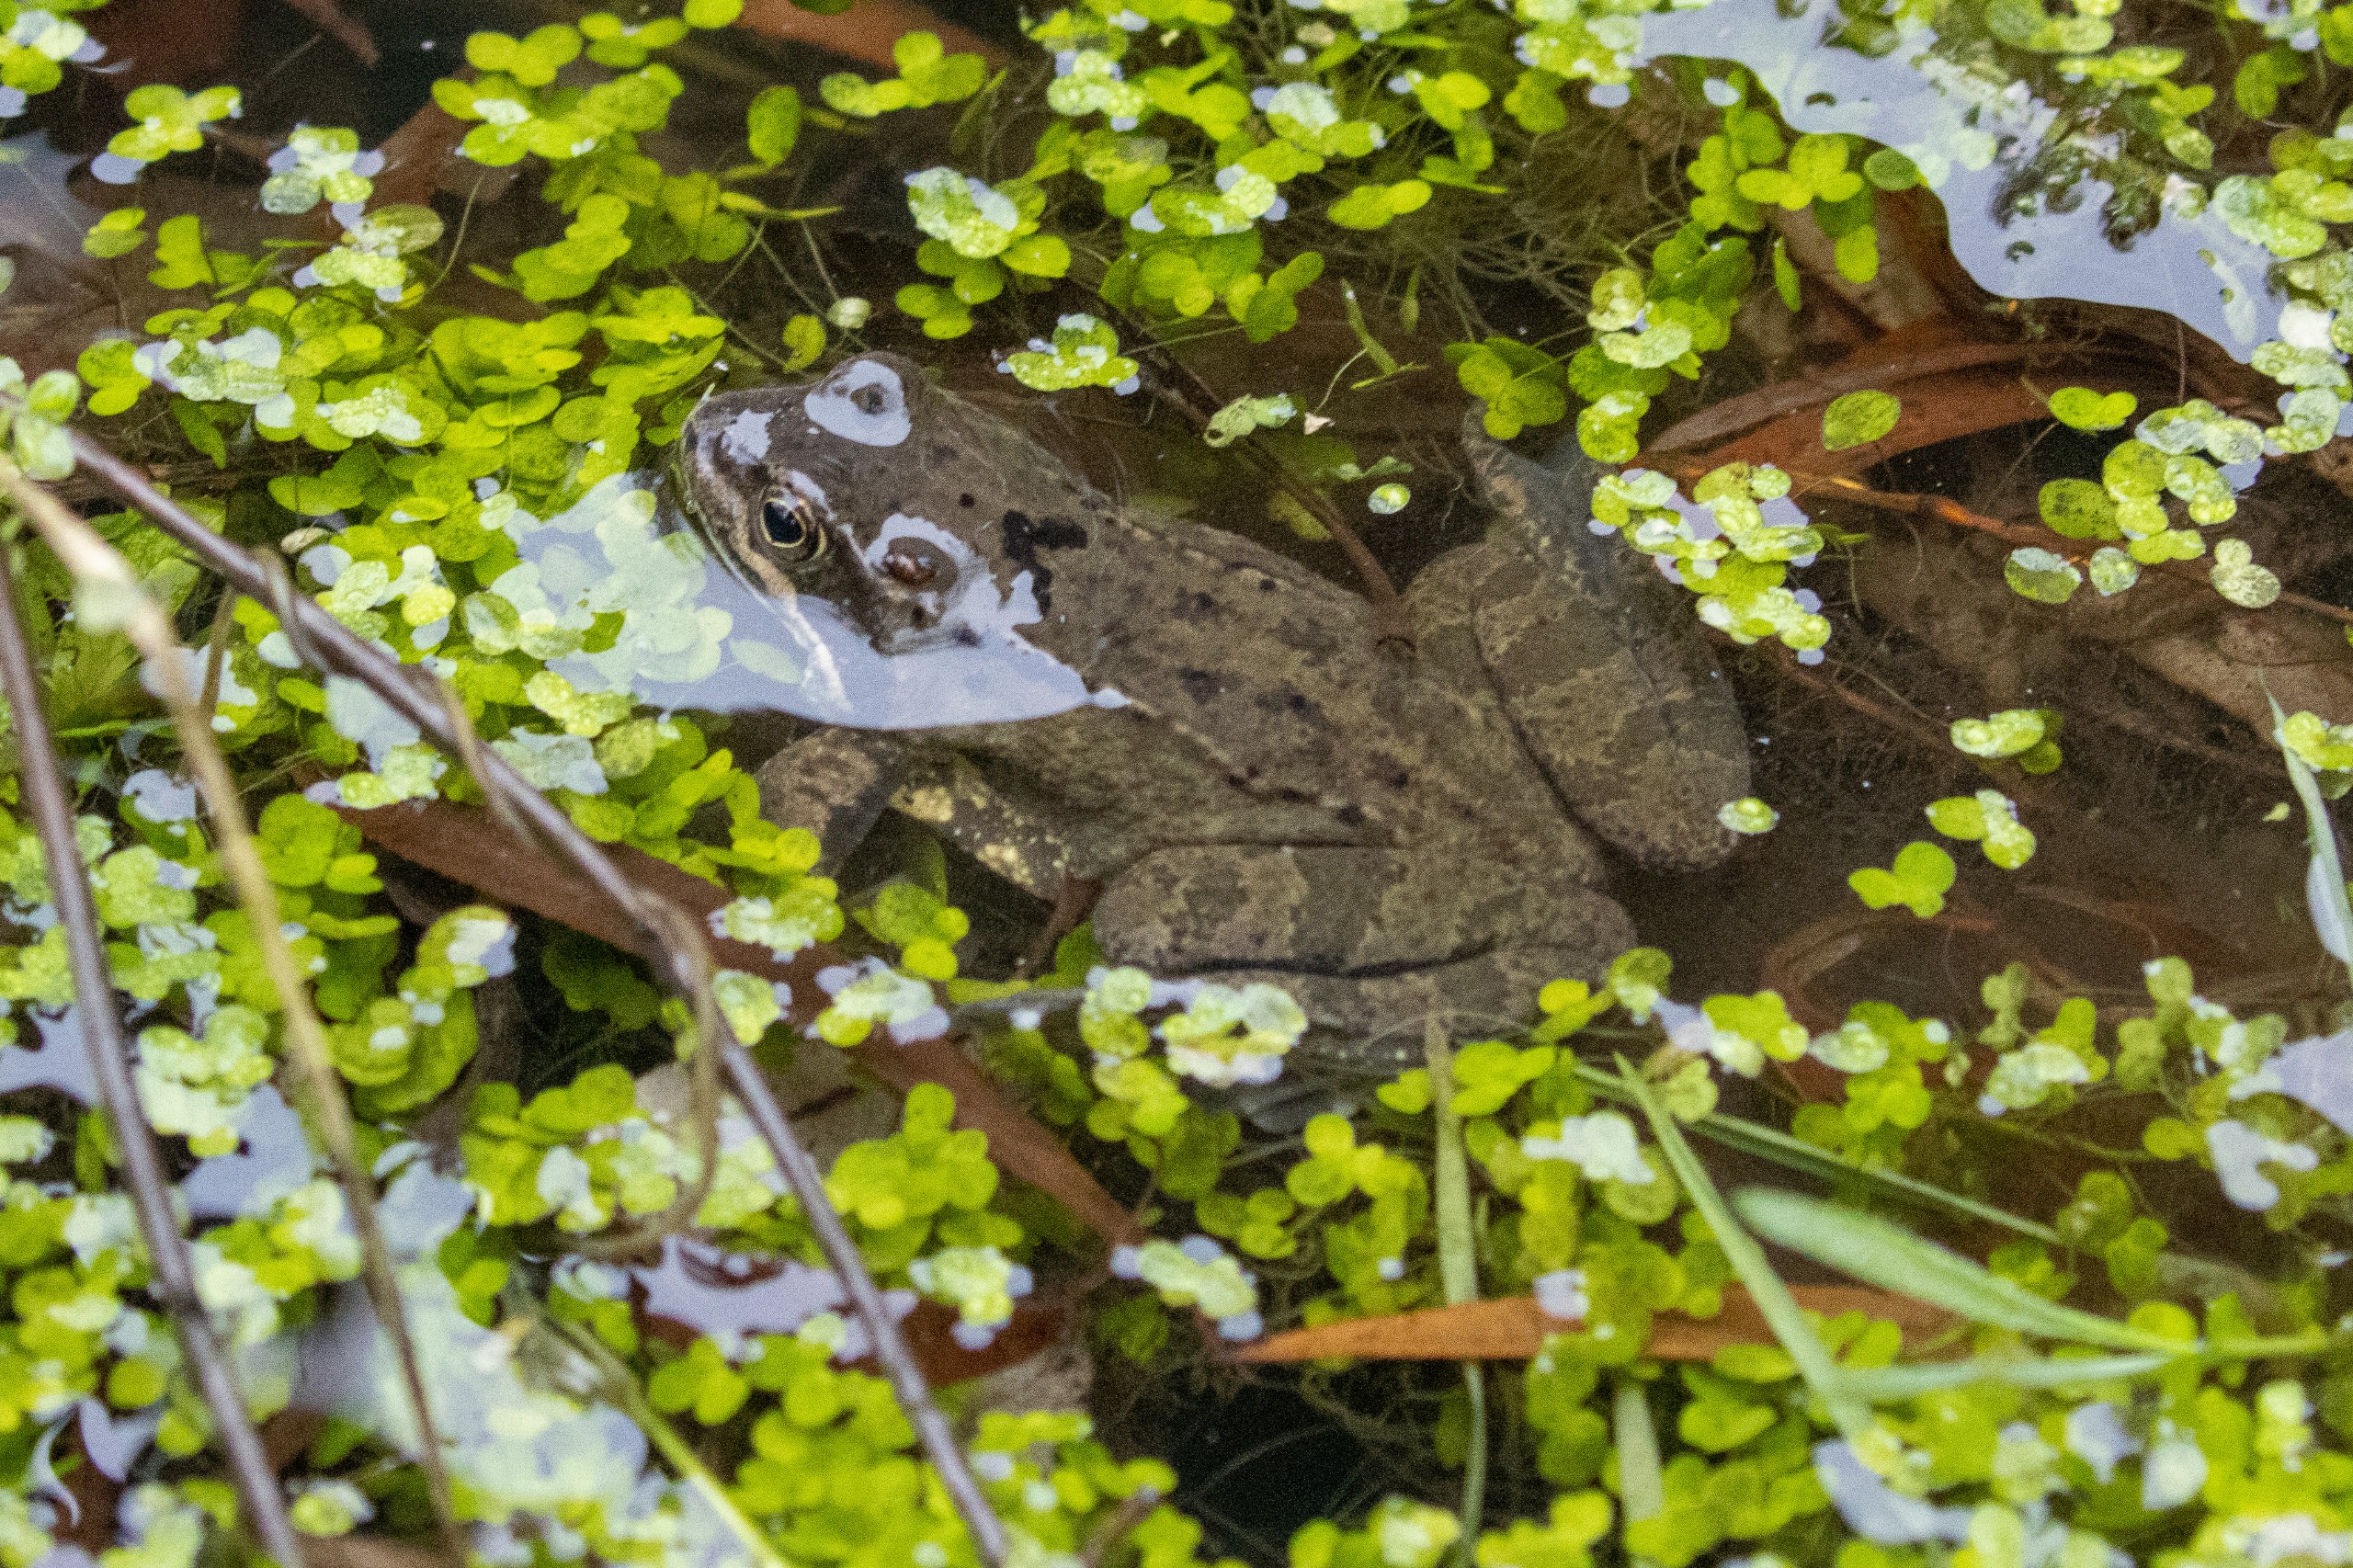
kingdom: Animalia
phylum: Chordata
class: Amphibia
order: Anura
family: Ranidae
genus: Rana
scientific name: Rana temporaria
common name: Butsnudet frø
